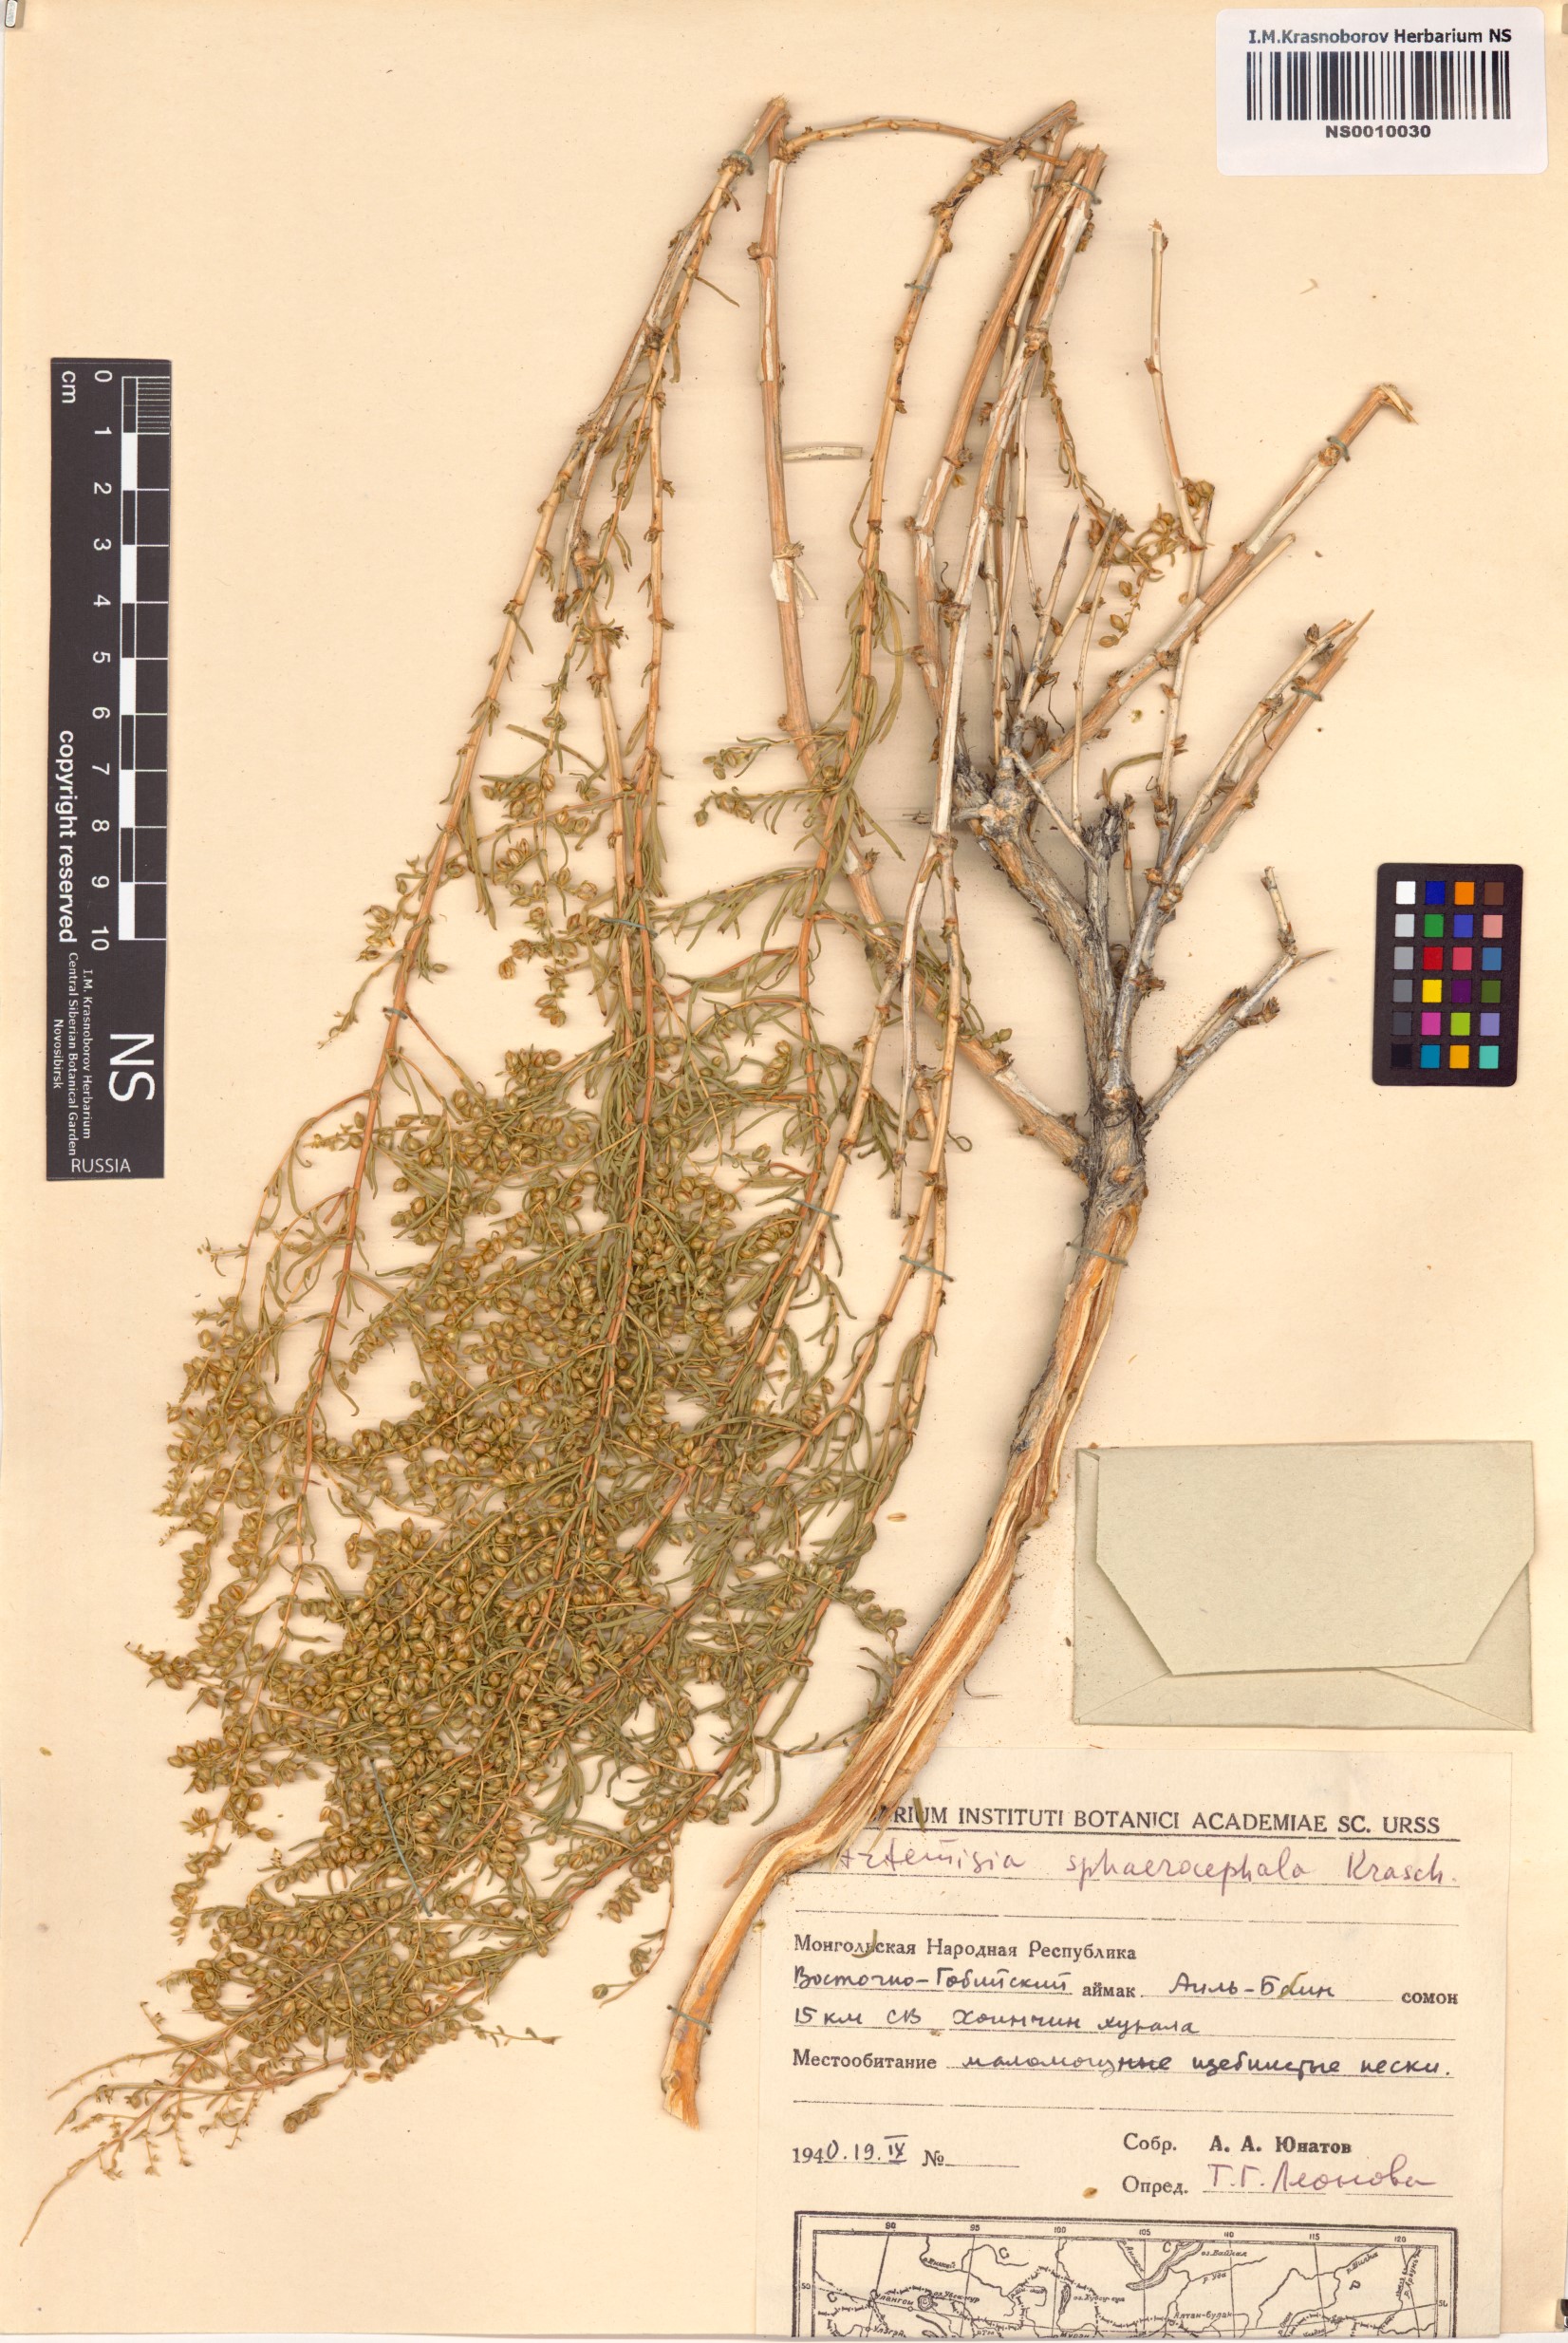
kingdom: Plantae
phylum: Tracheophyta
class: Magnoliopsida
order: Asterales
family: Asteraceae
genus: Artemisia
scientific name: Artemisia sphaerocephala
